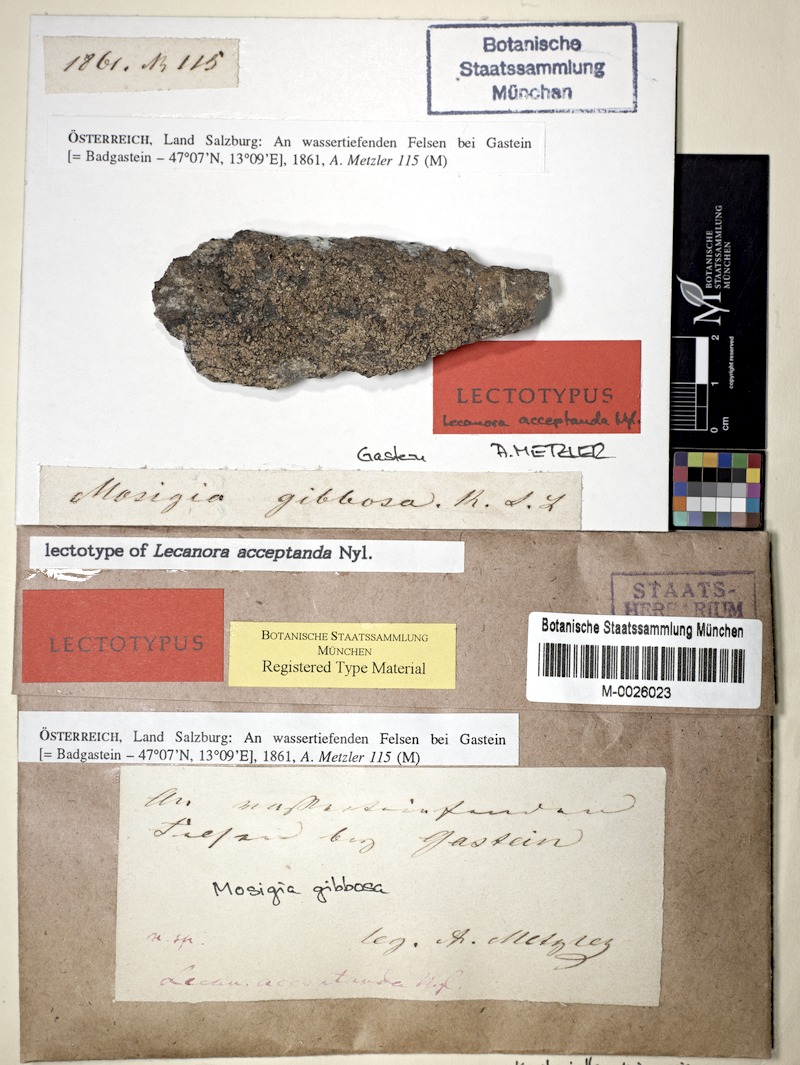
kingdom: Fungi
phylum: Ascomycota
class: Lecanoromycetes
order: Lecideales
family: Lecideaceae
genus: Koerberiella
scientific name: Koerberiella wimmeriana
